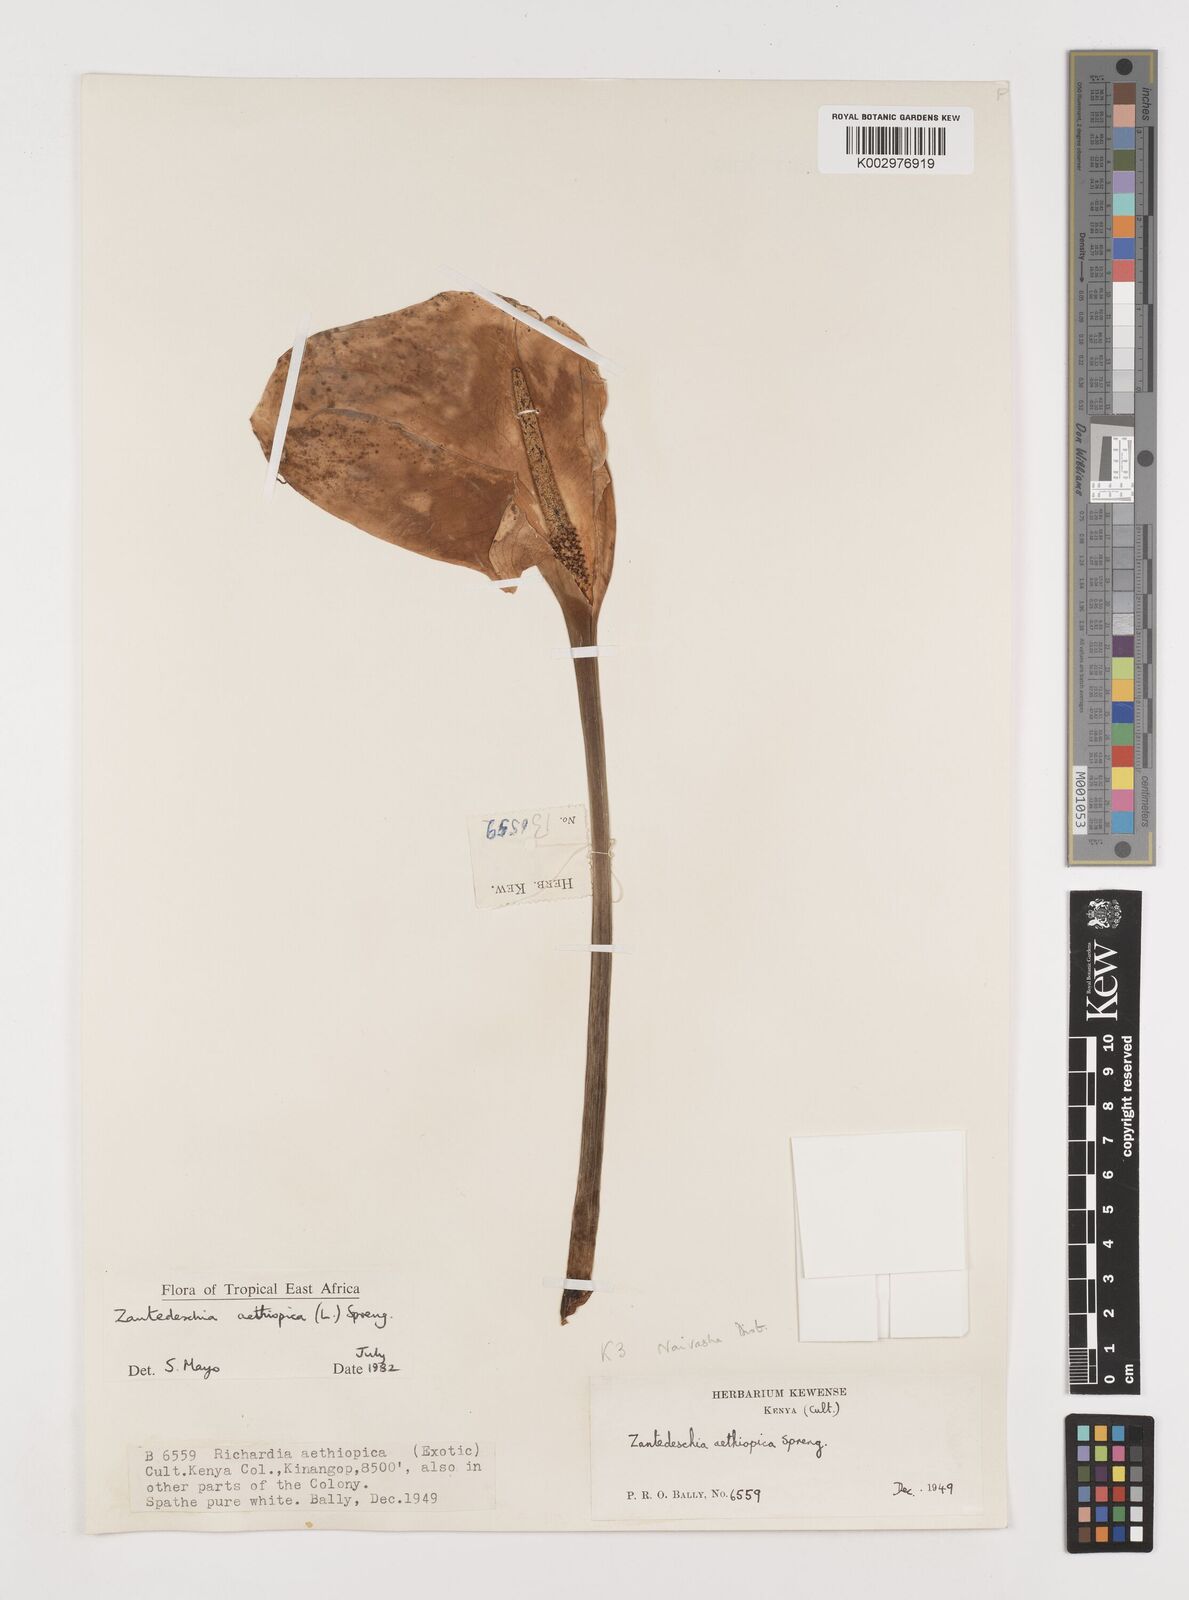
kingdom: Plantae
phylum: Tracheophyta
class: Liliopsida
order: Alismatales
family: Araceae
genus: Zantedeschia
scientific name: Zantedeschia aethiopica
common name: Altar-lily
